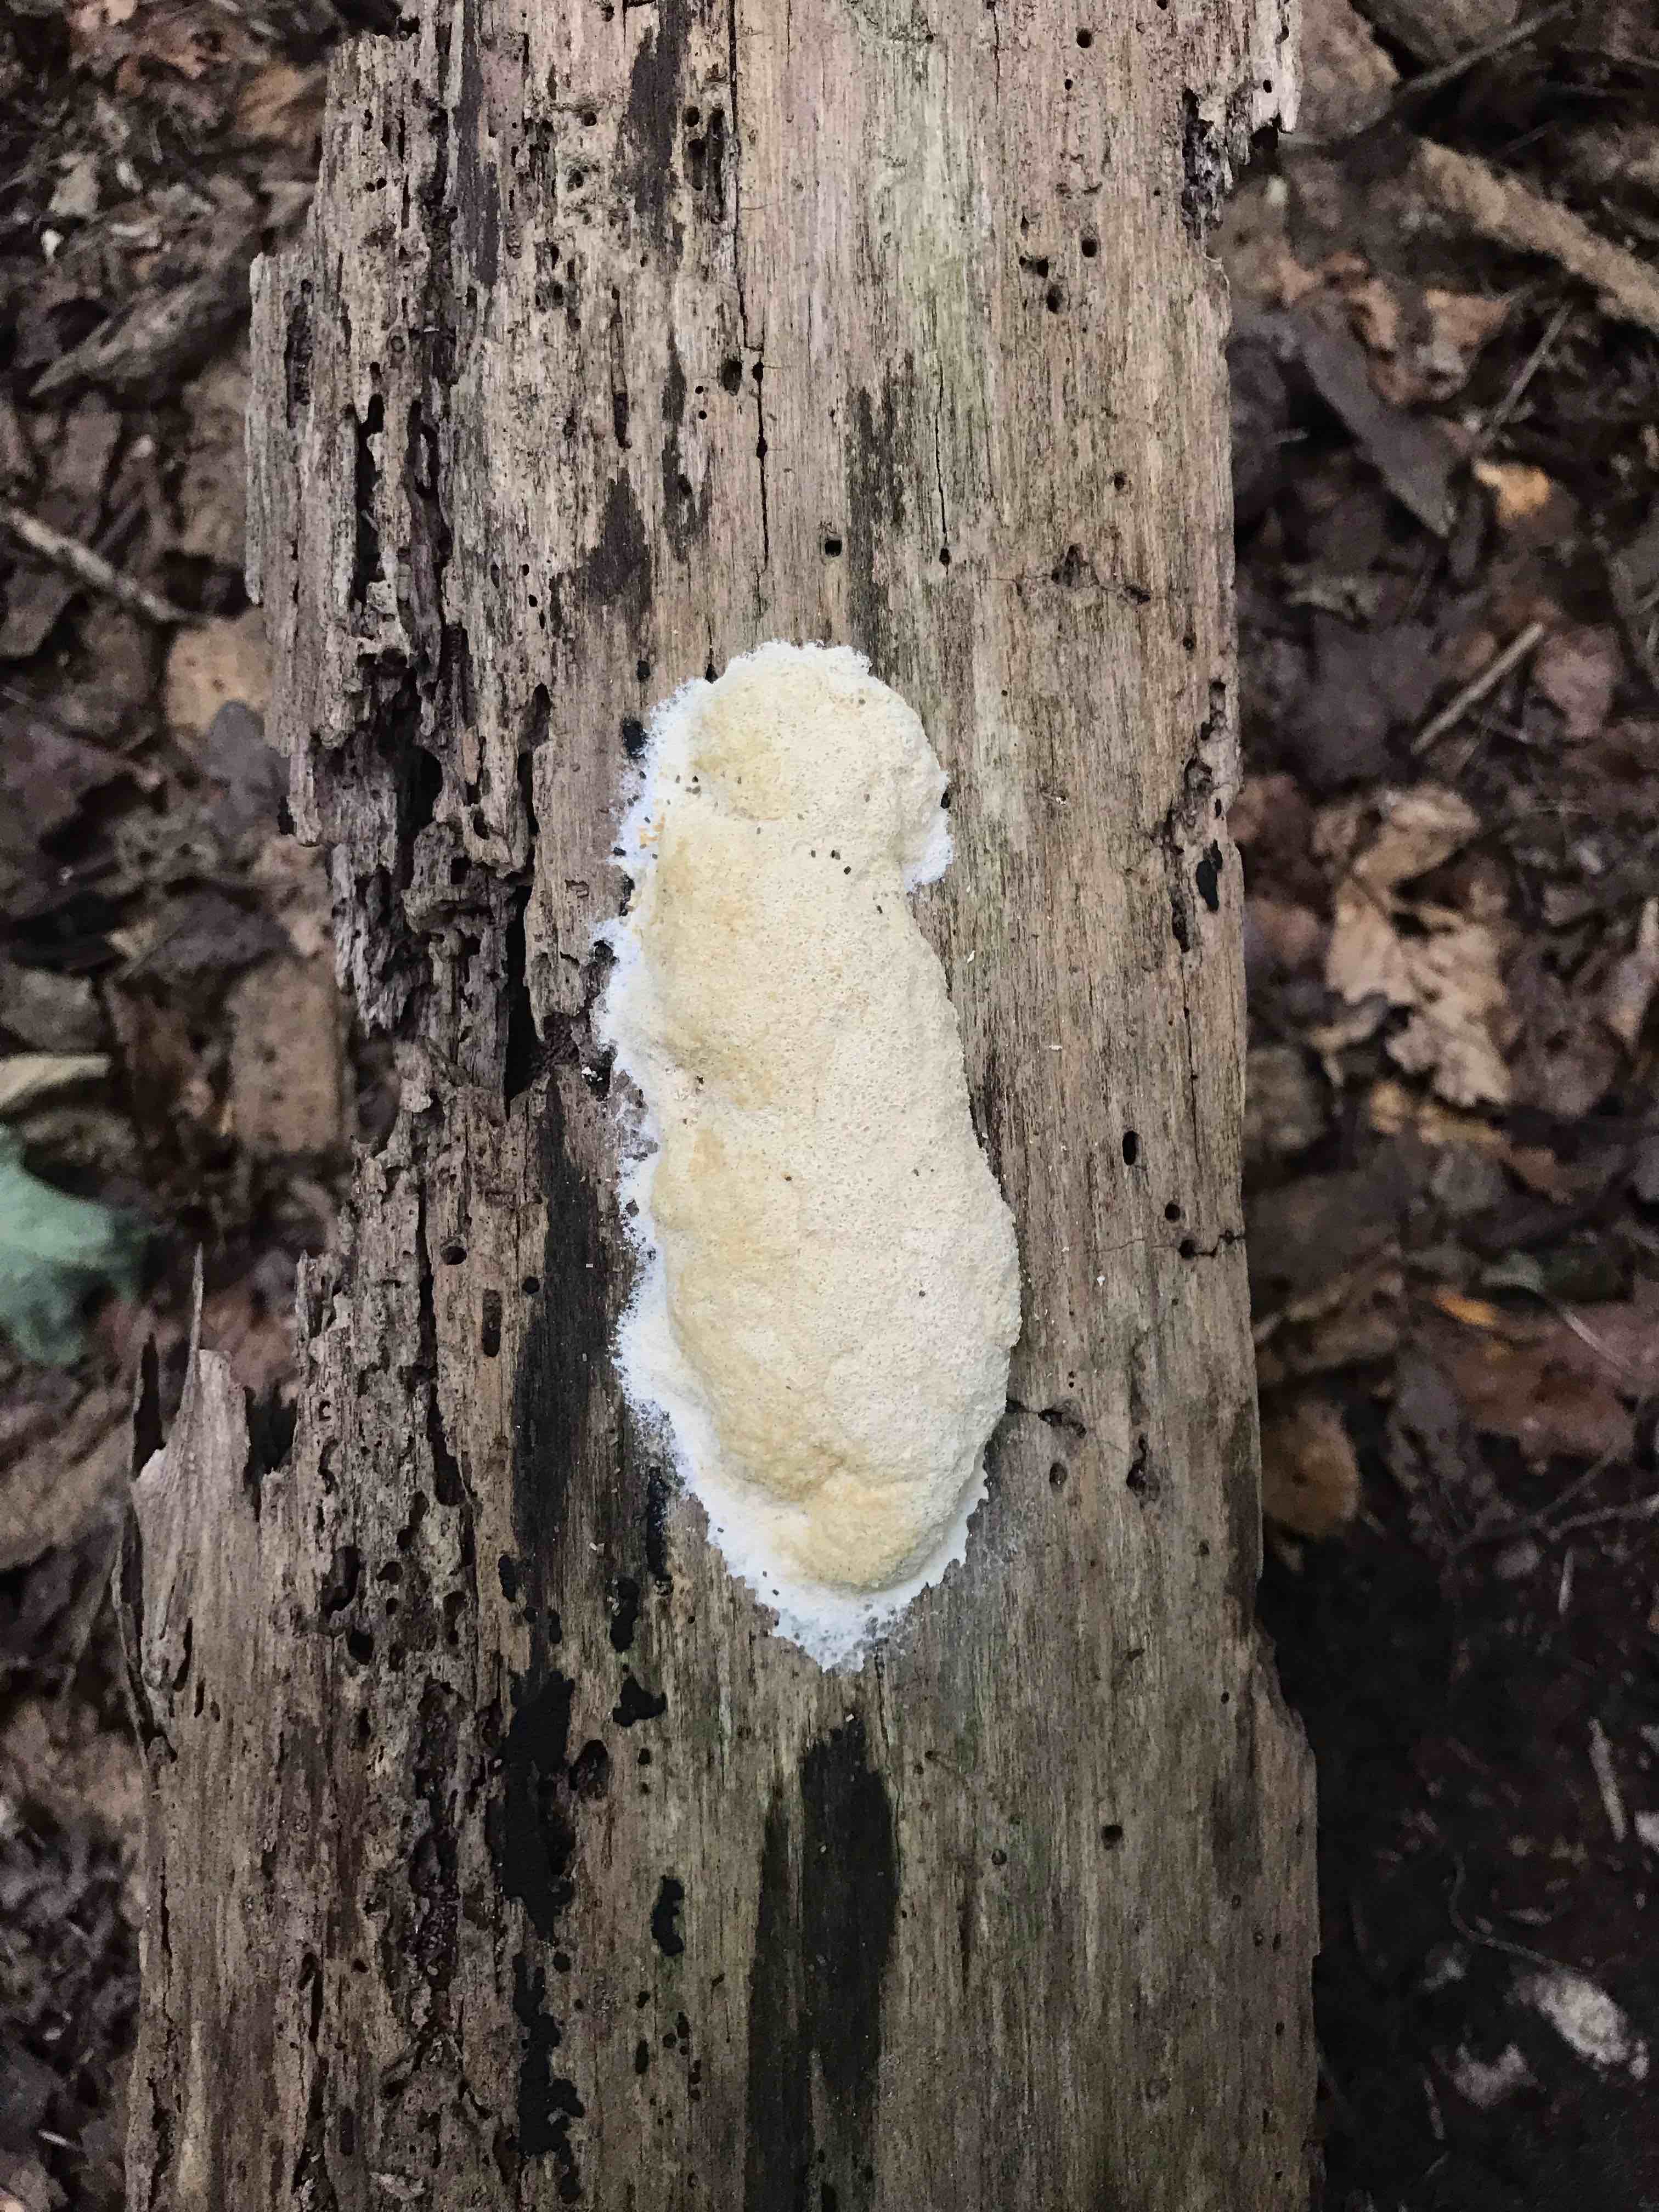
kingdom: Protozoa
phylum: Mycetozoa
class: Myxomycetes
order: Physarales
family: Physaraceae
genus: Fuligo
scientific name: Fuligo
